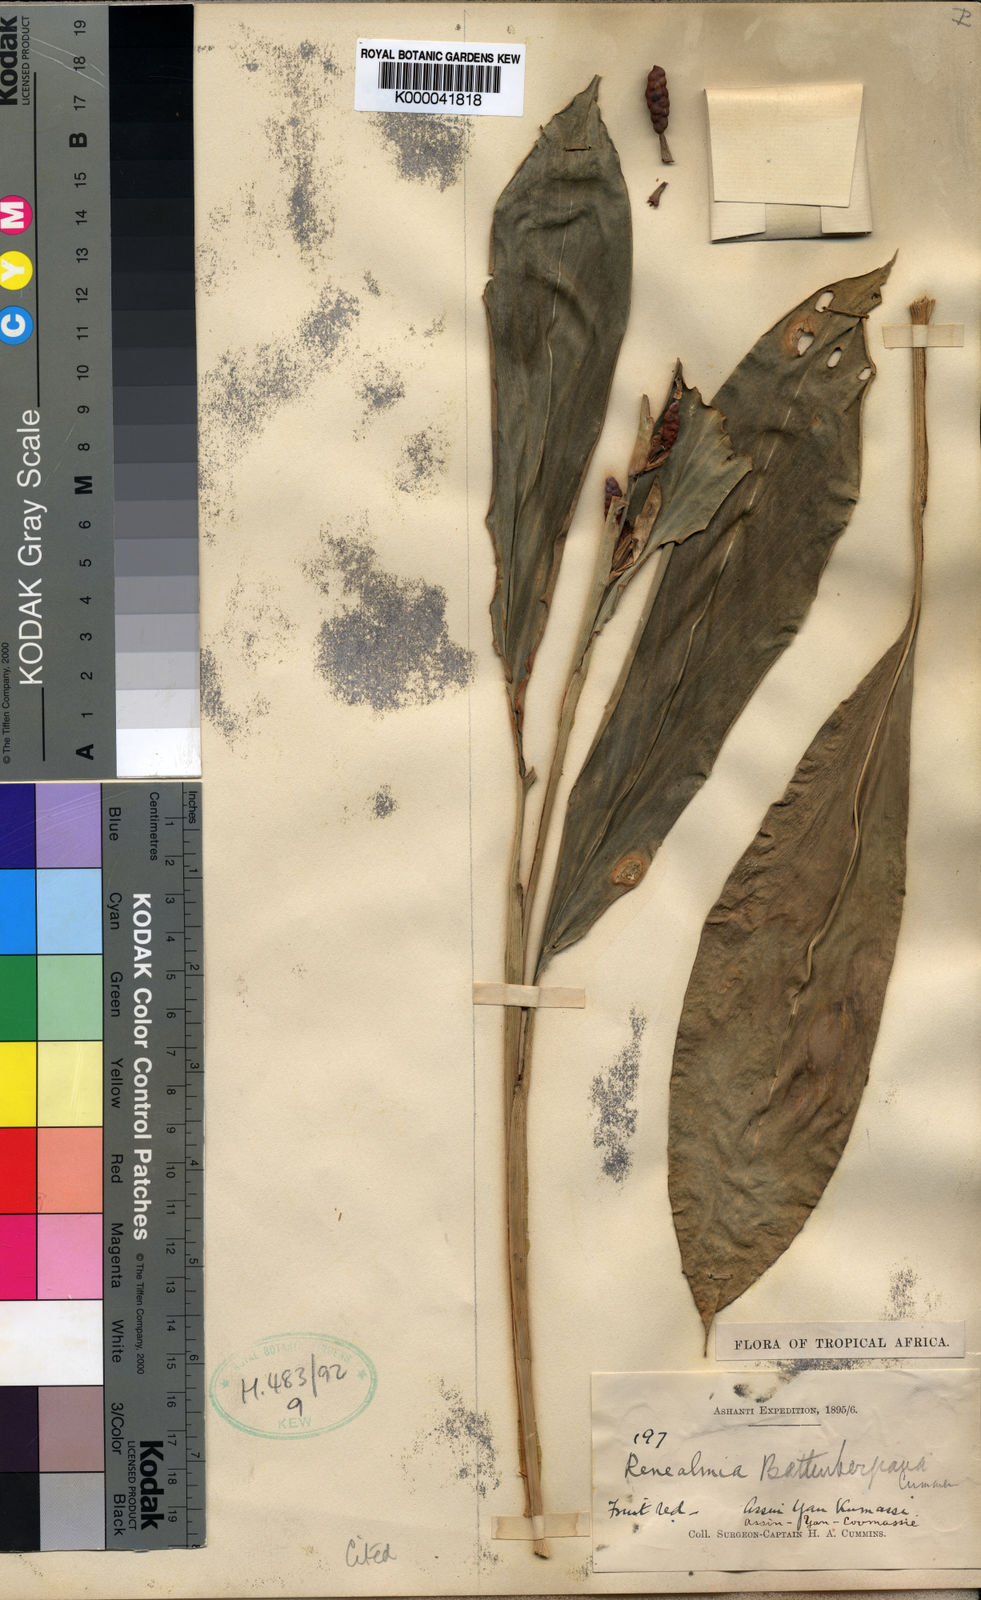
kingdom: Plantae
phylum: Tracheophyta
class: Liliopsida
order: Zingiberales
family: Zingiberaceae
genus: Renealmia
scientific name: Renealmia
